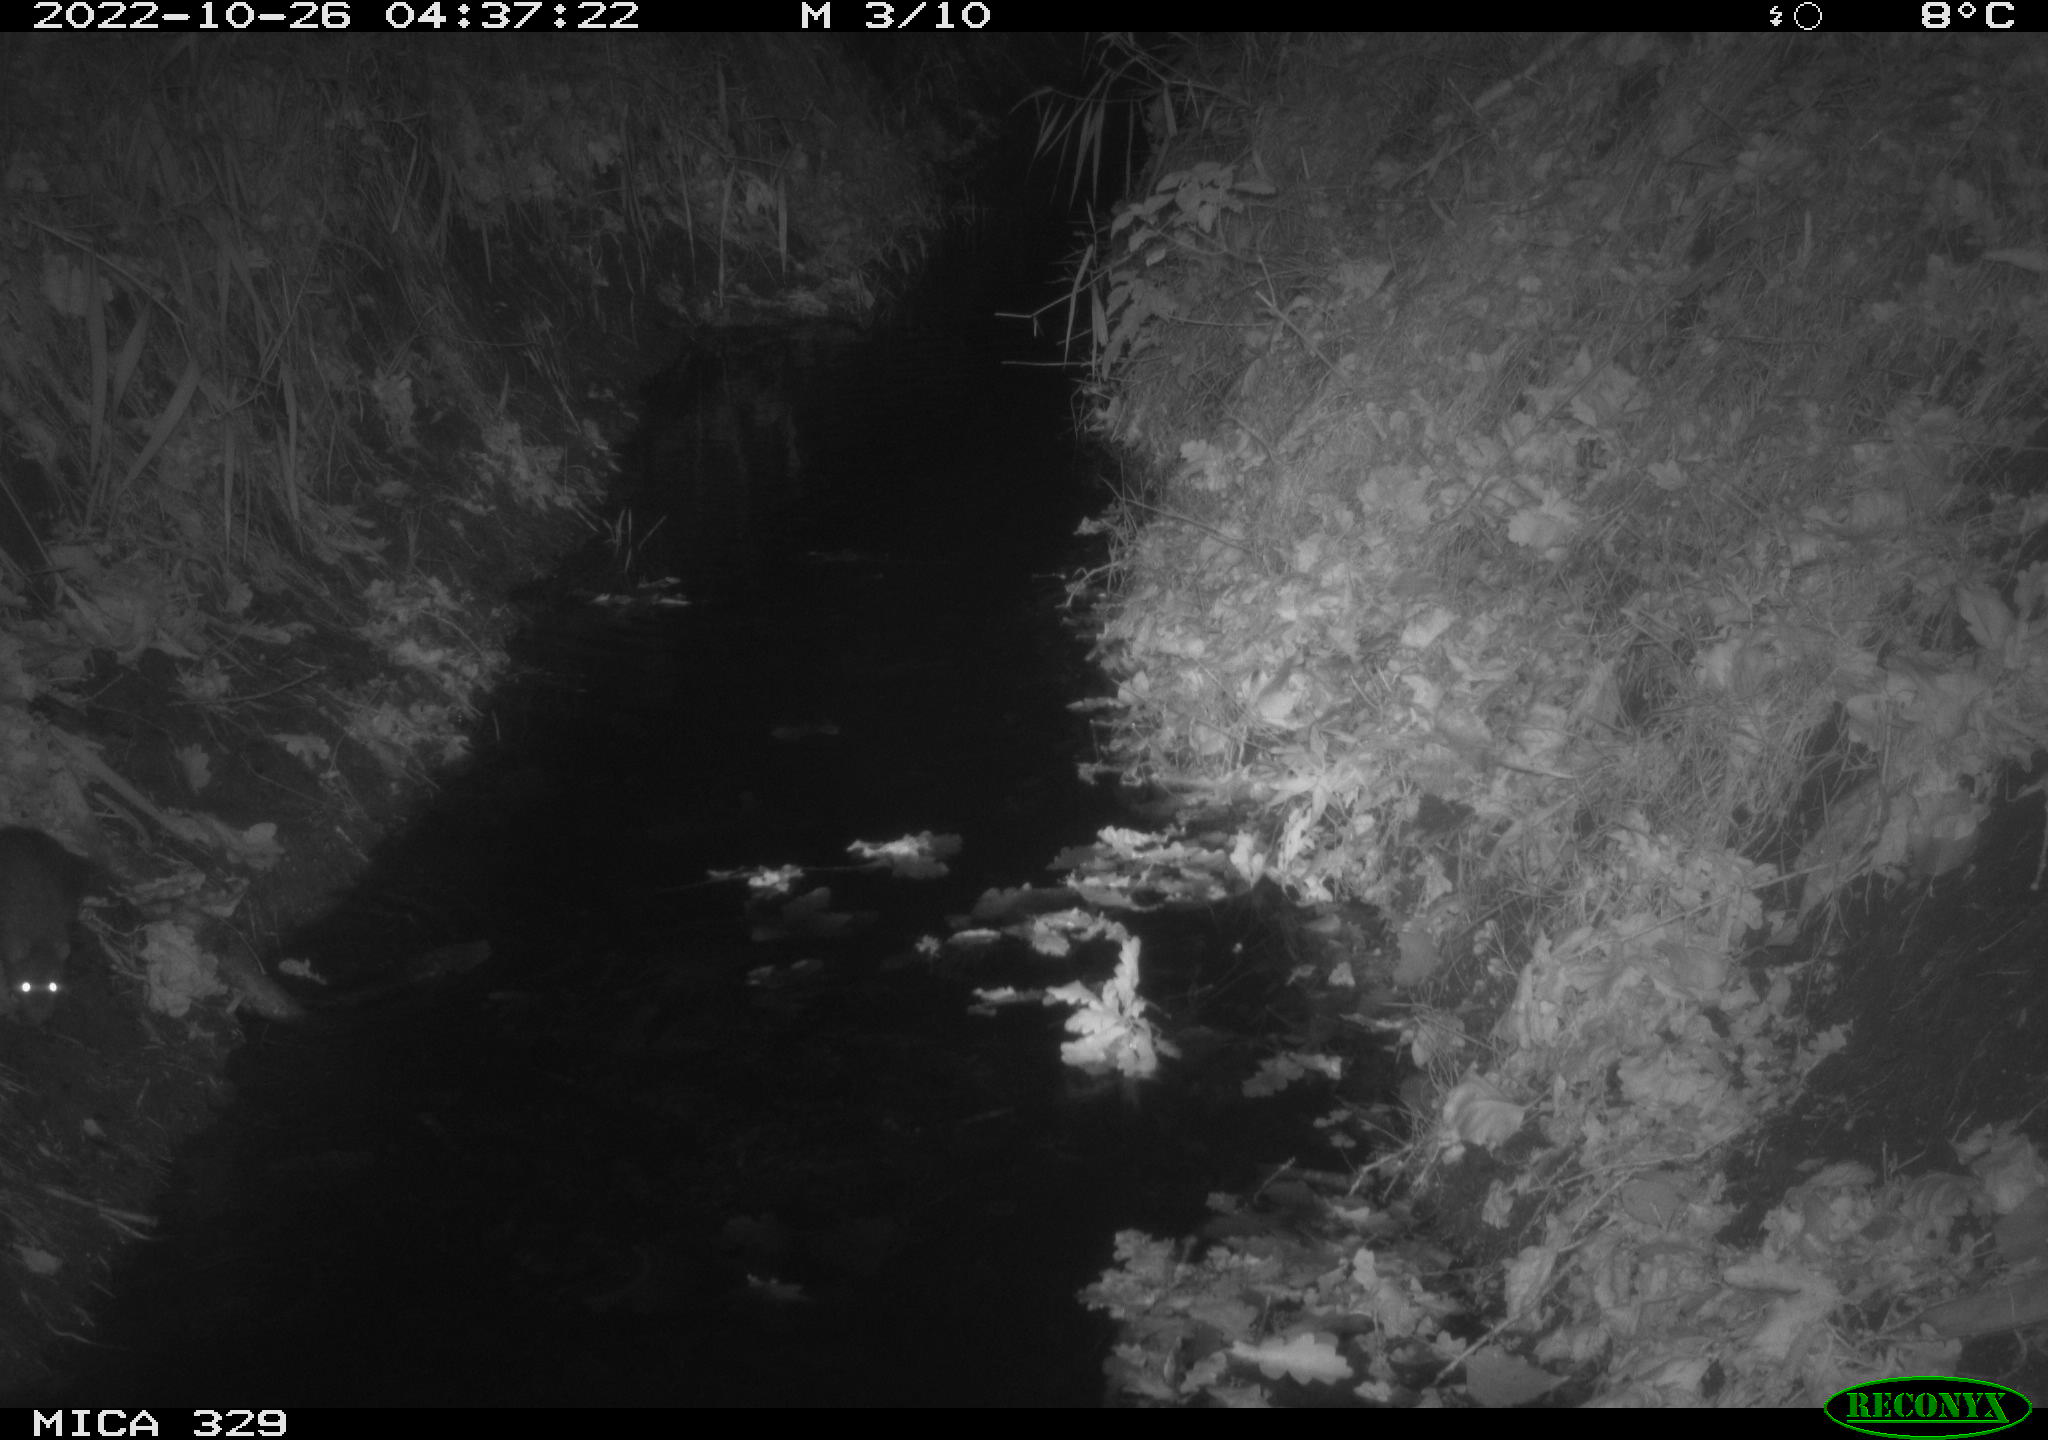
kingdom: Animalia
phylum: Chordata
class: Mammalia
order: Rodentia
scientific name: Rodentia
